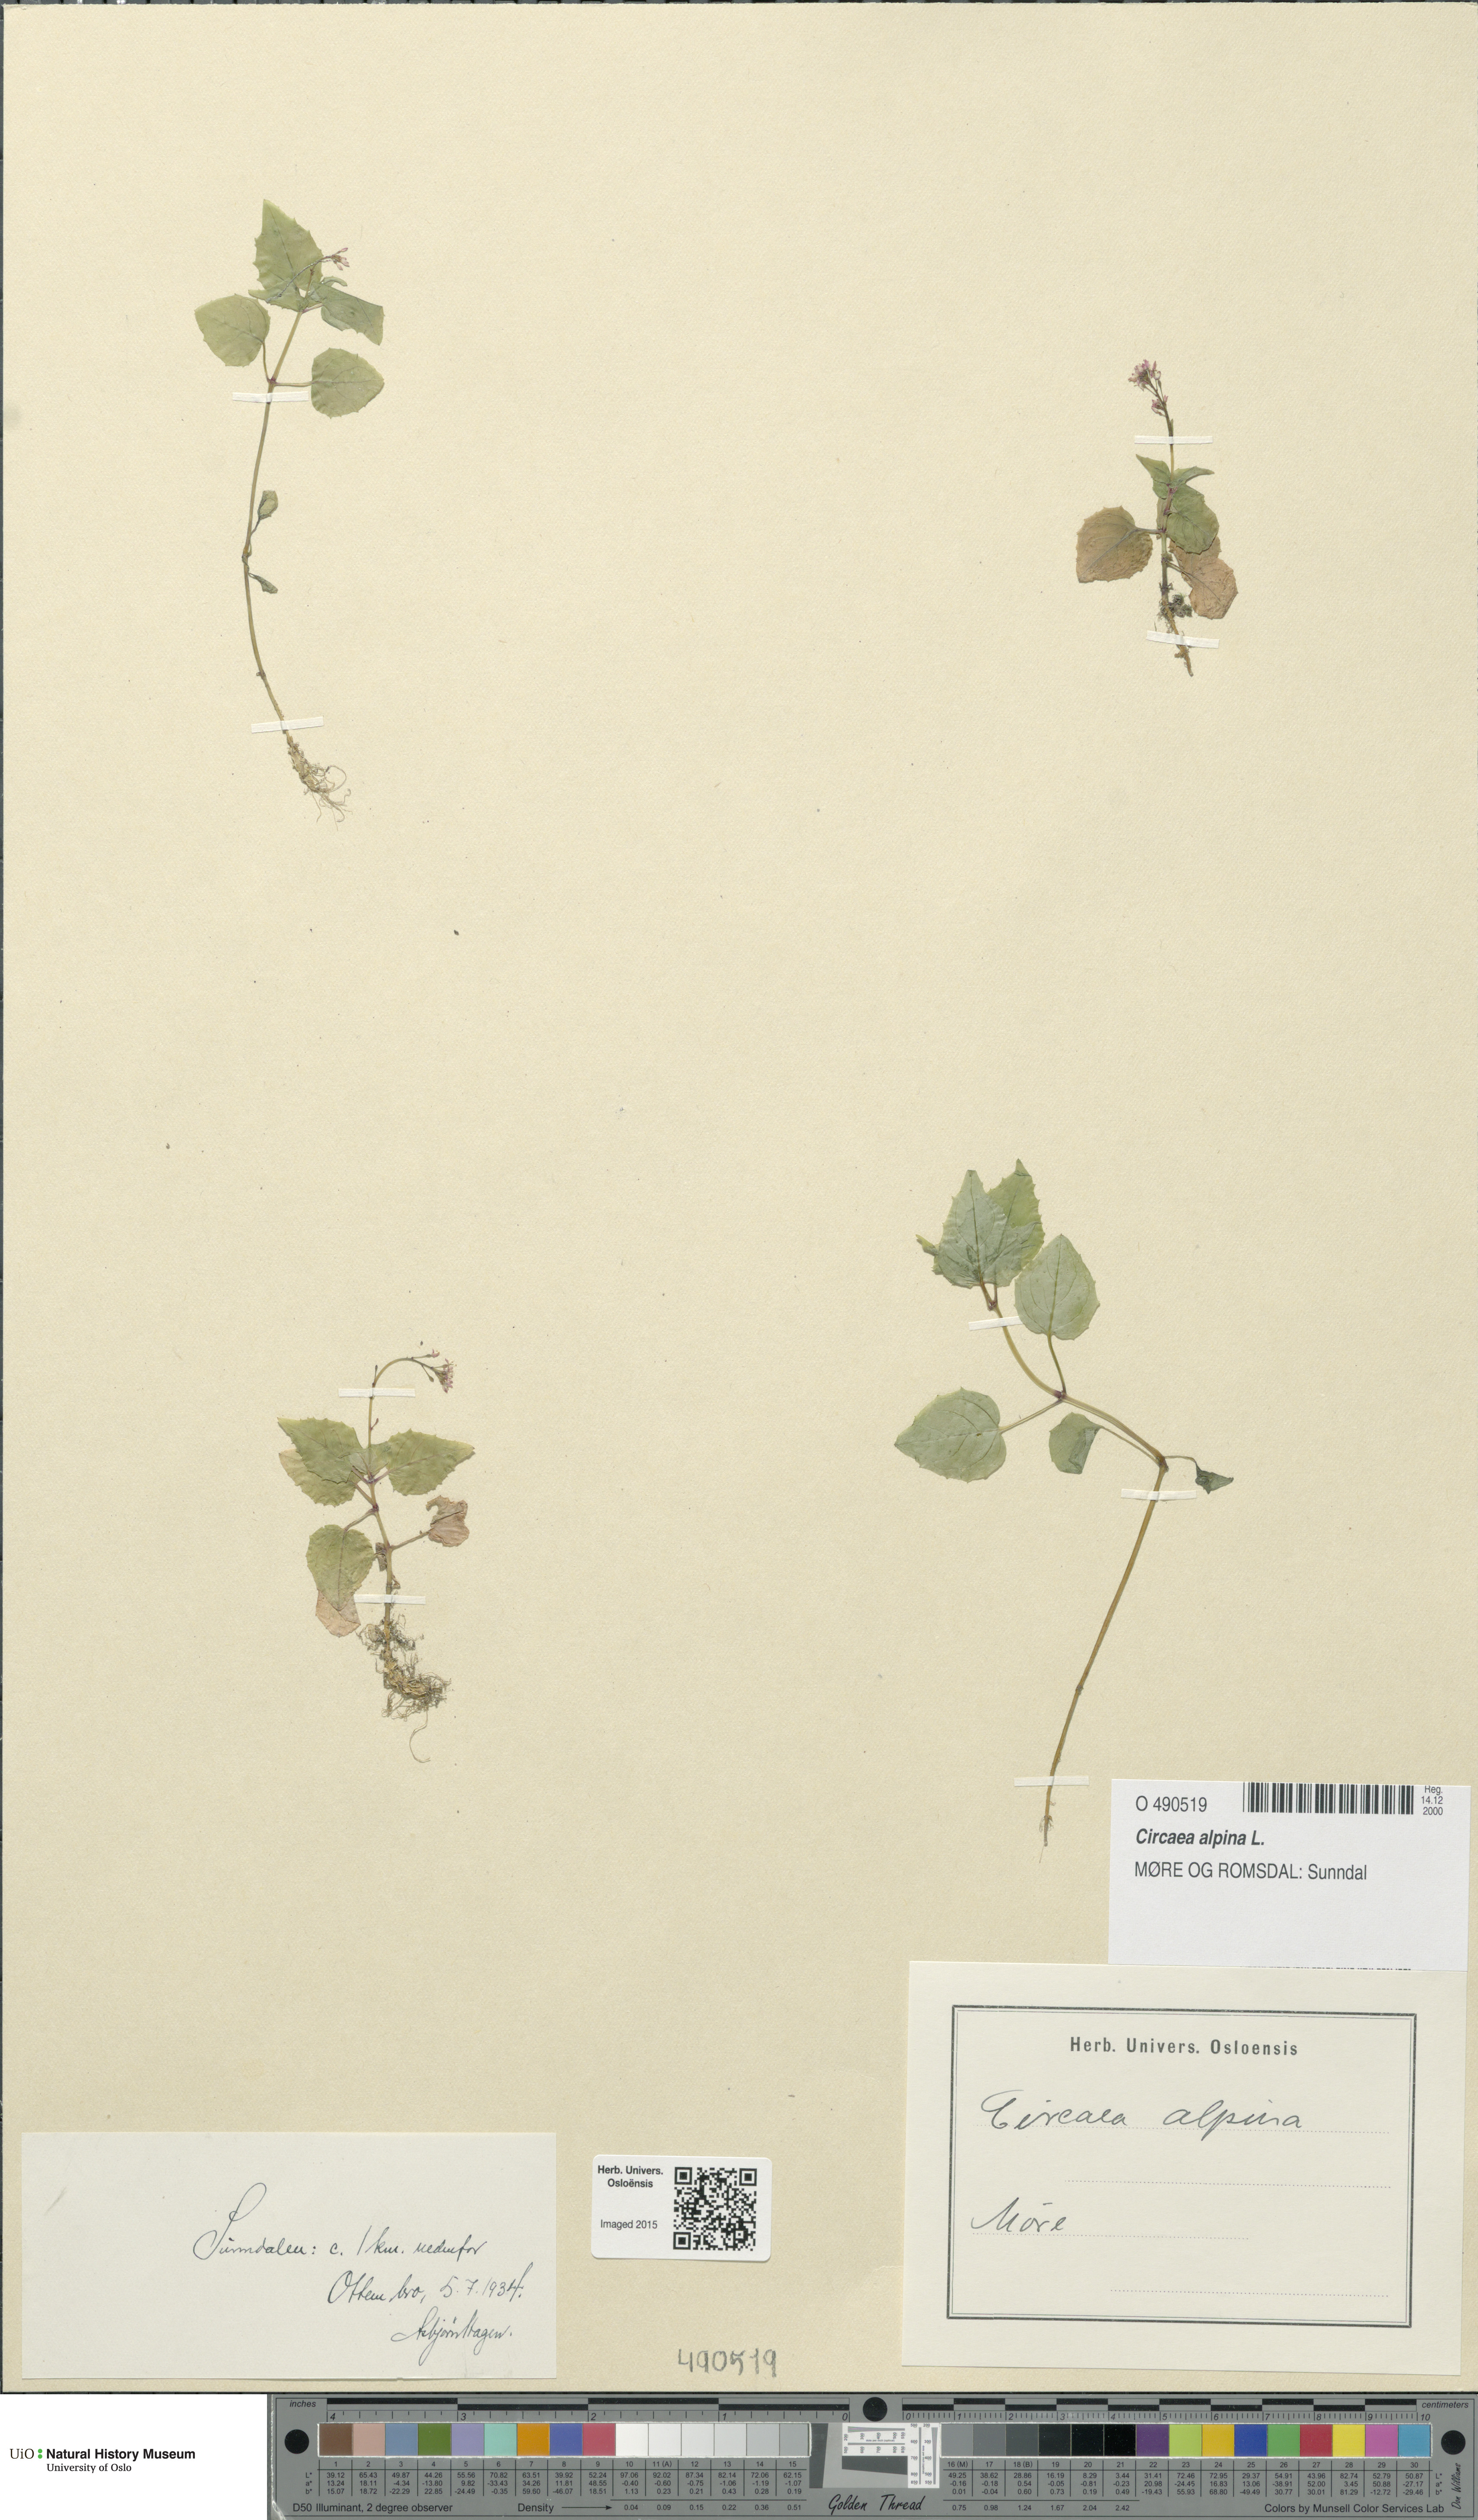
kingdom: Plantae
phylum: Tracheophyta
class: Magnoliopsida
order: Myrtales
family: Onagraceae
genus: Circaea
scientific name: Circaea alpina
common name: Alpine enchanter's-nightshade
